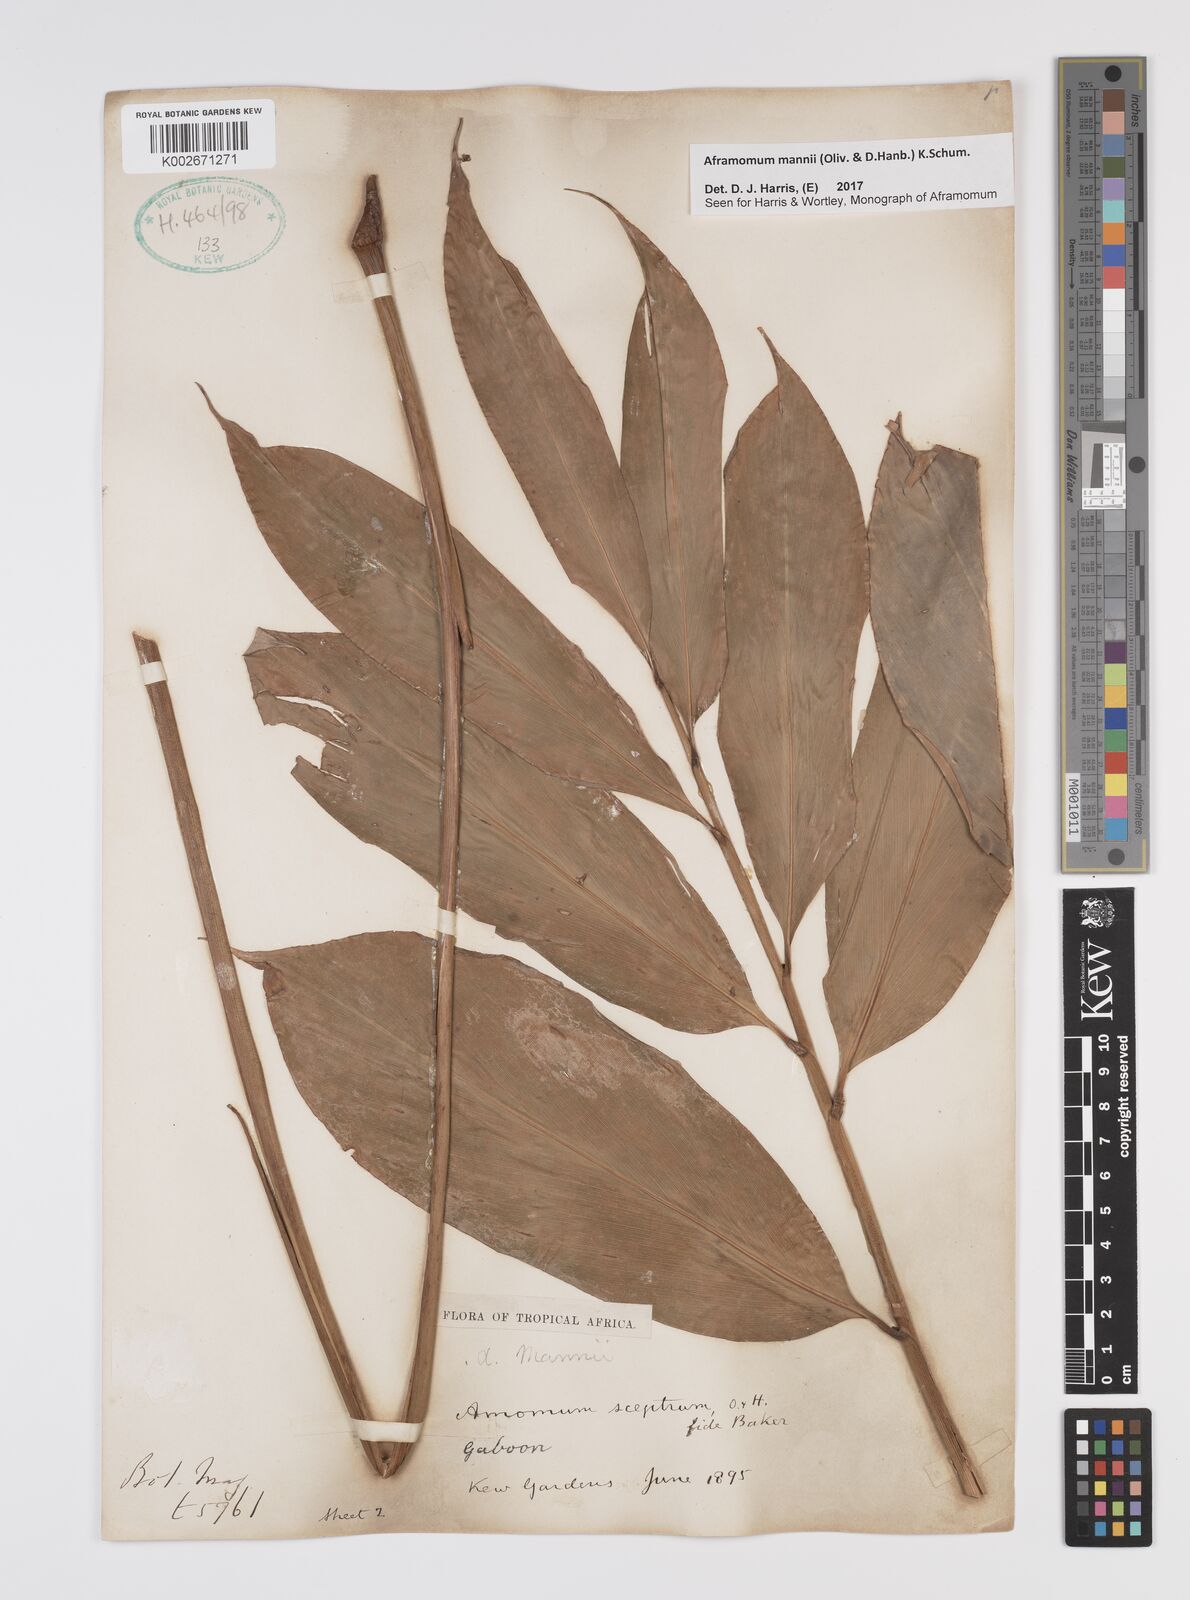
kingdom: Plantae
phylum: Tracheophyta
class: Liliopsida
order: Zingiberales
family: Zingiberaceae
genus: Aframomum
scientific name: Aframomum mannii
